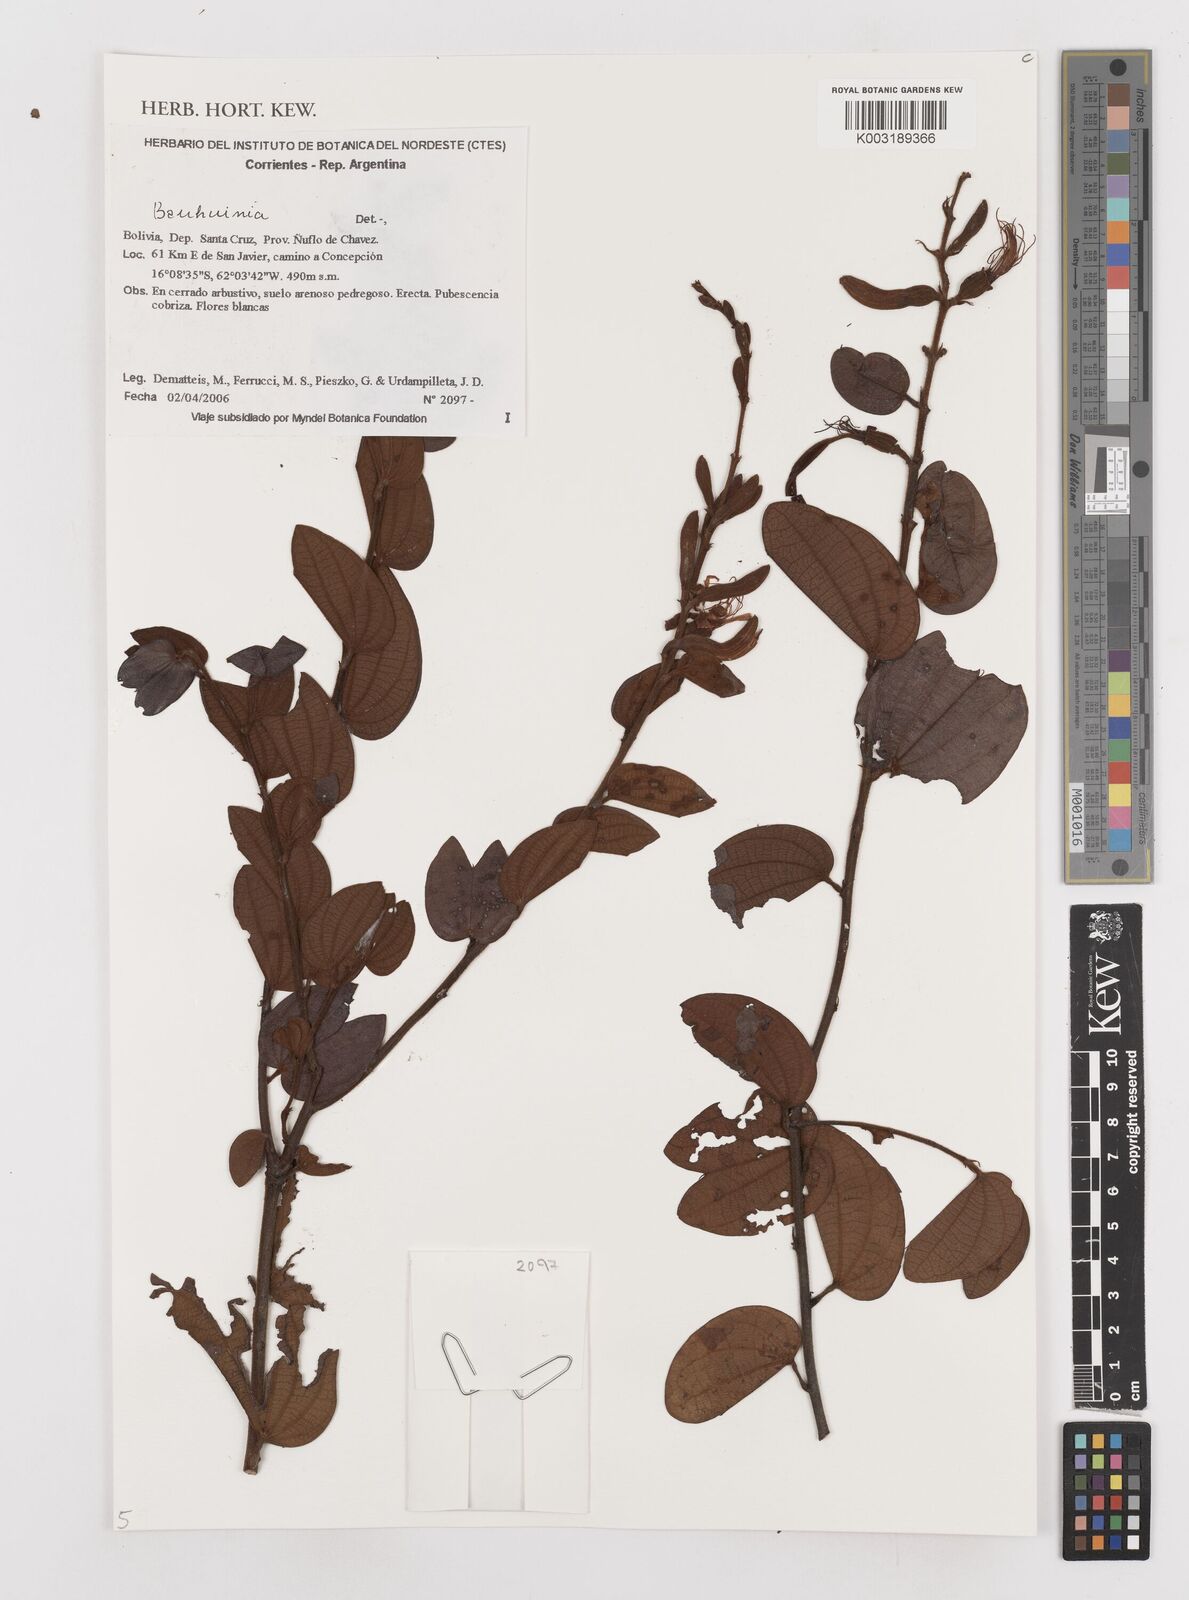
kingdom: Plantae
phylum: Tracheophyta
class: Magnoliopsida
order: Fabales
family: Fabaceae
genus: Bauhinia
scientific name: Bauhinia
